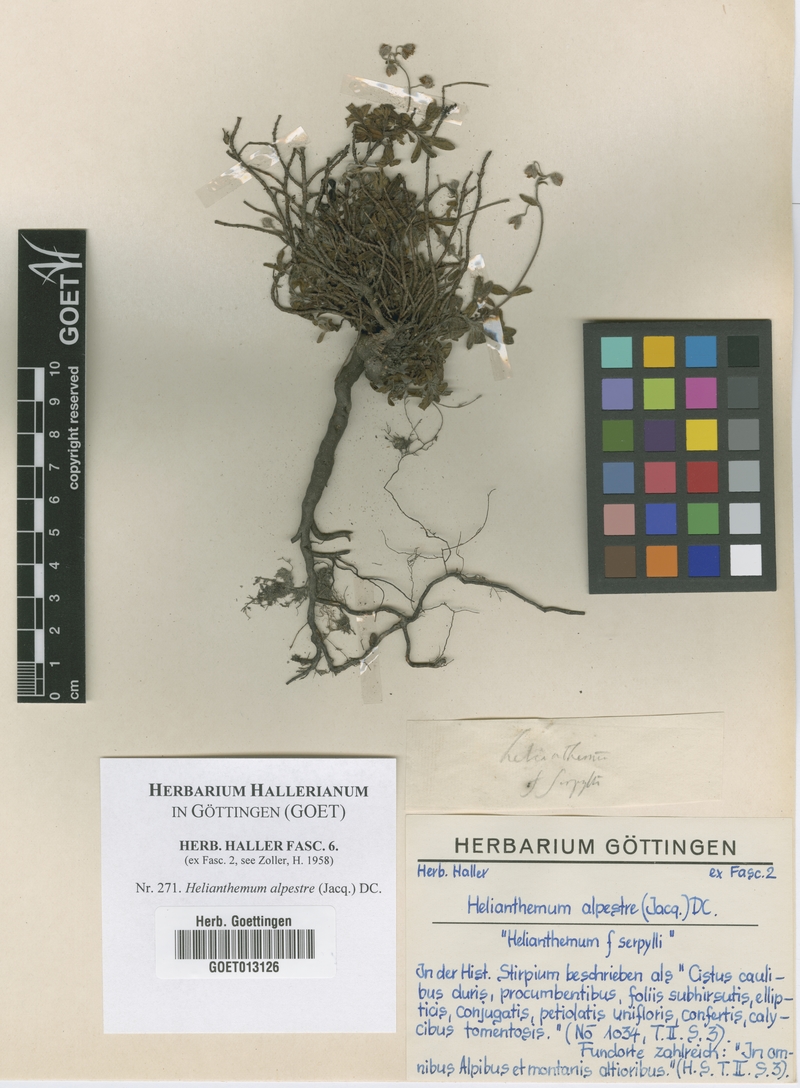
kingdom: Plantae
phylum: Tracheophyta
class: Magnoliopsida
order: Malvales
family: Cistaceae
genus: Helianthemum
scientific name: Helianthemum alpestre
